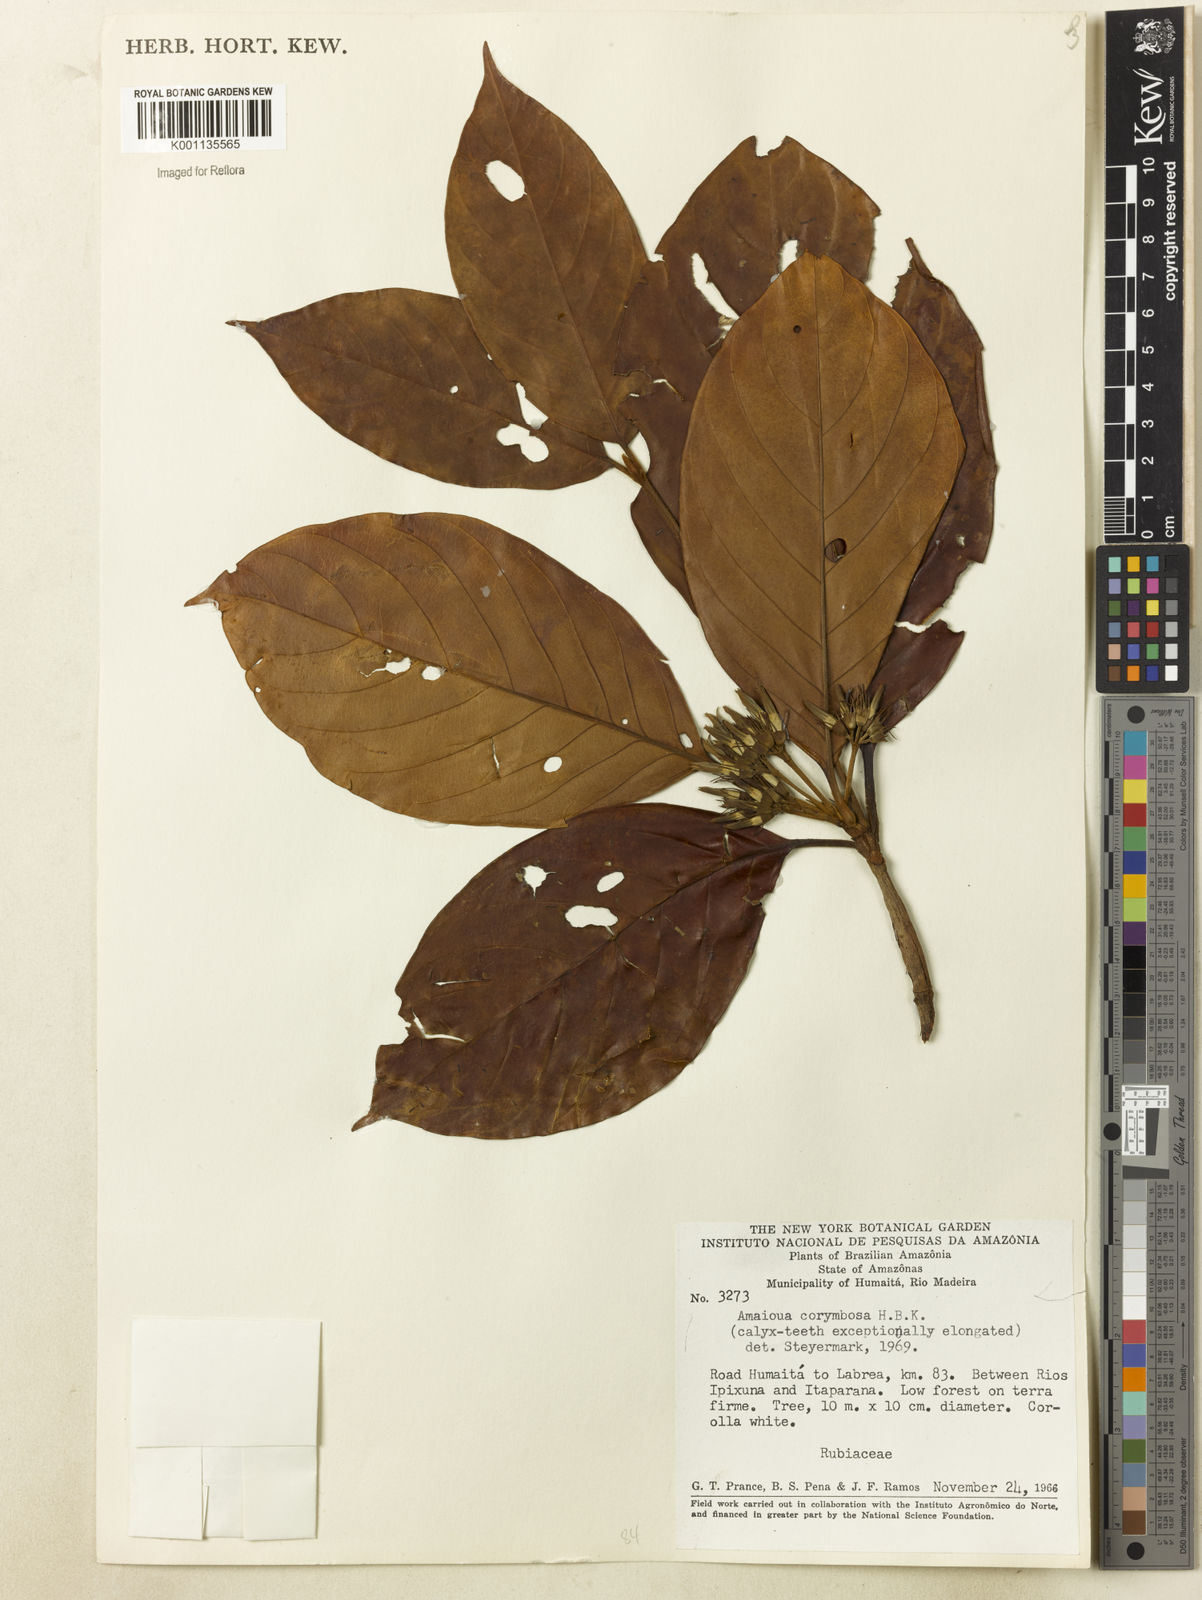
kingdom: Plantae
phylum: Tracheophyta
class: Magnoliopsida
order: Gentianales
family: Rubiaceae
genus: Amaioua
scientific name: Amaioua glomerulata
